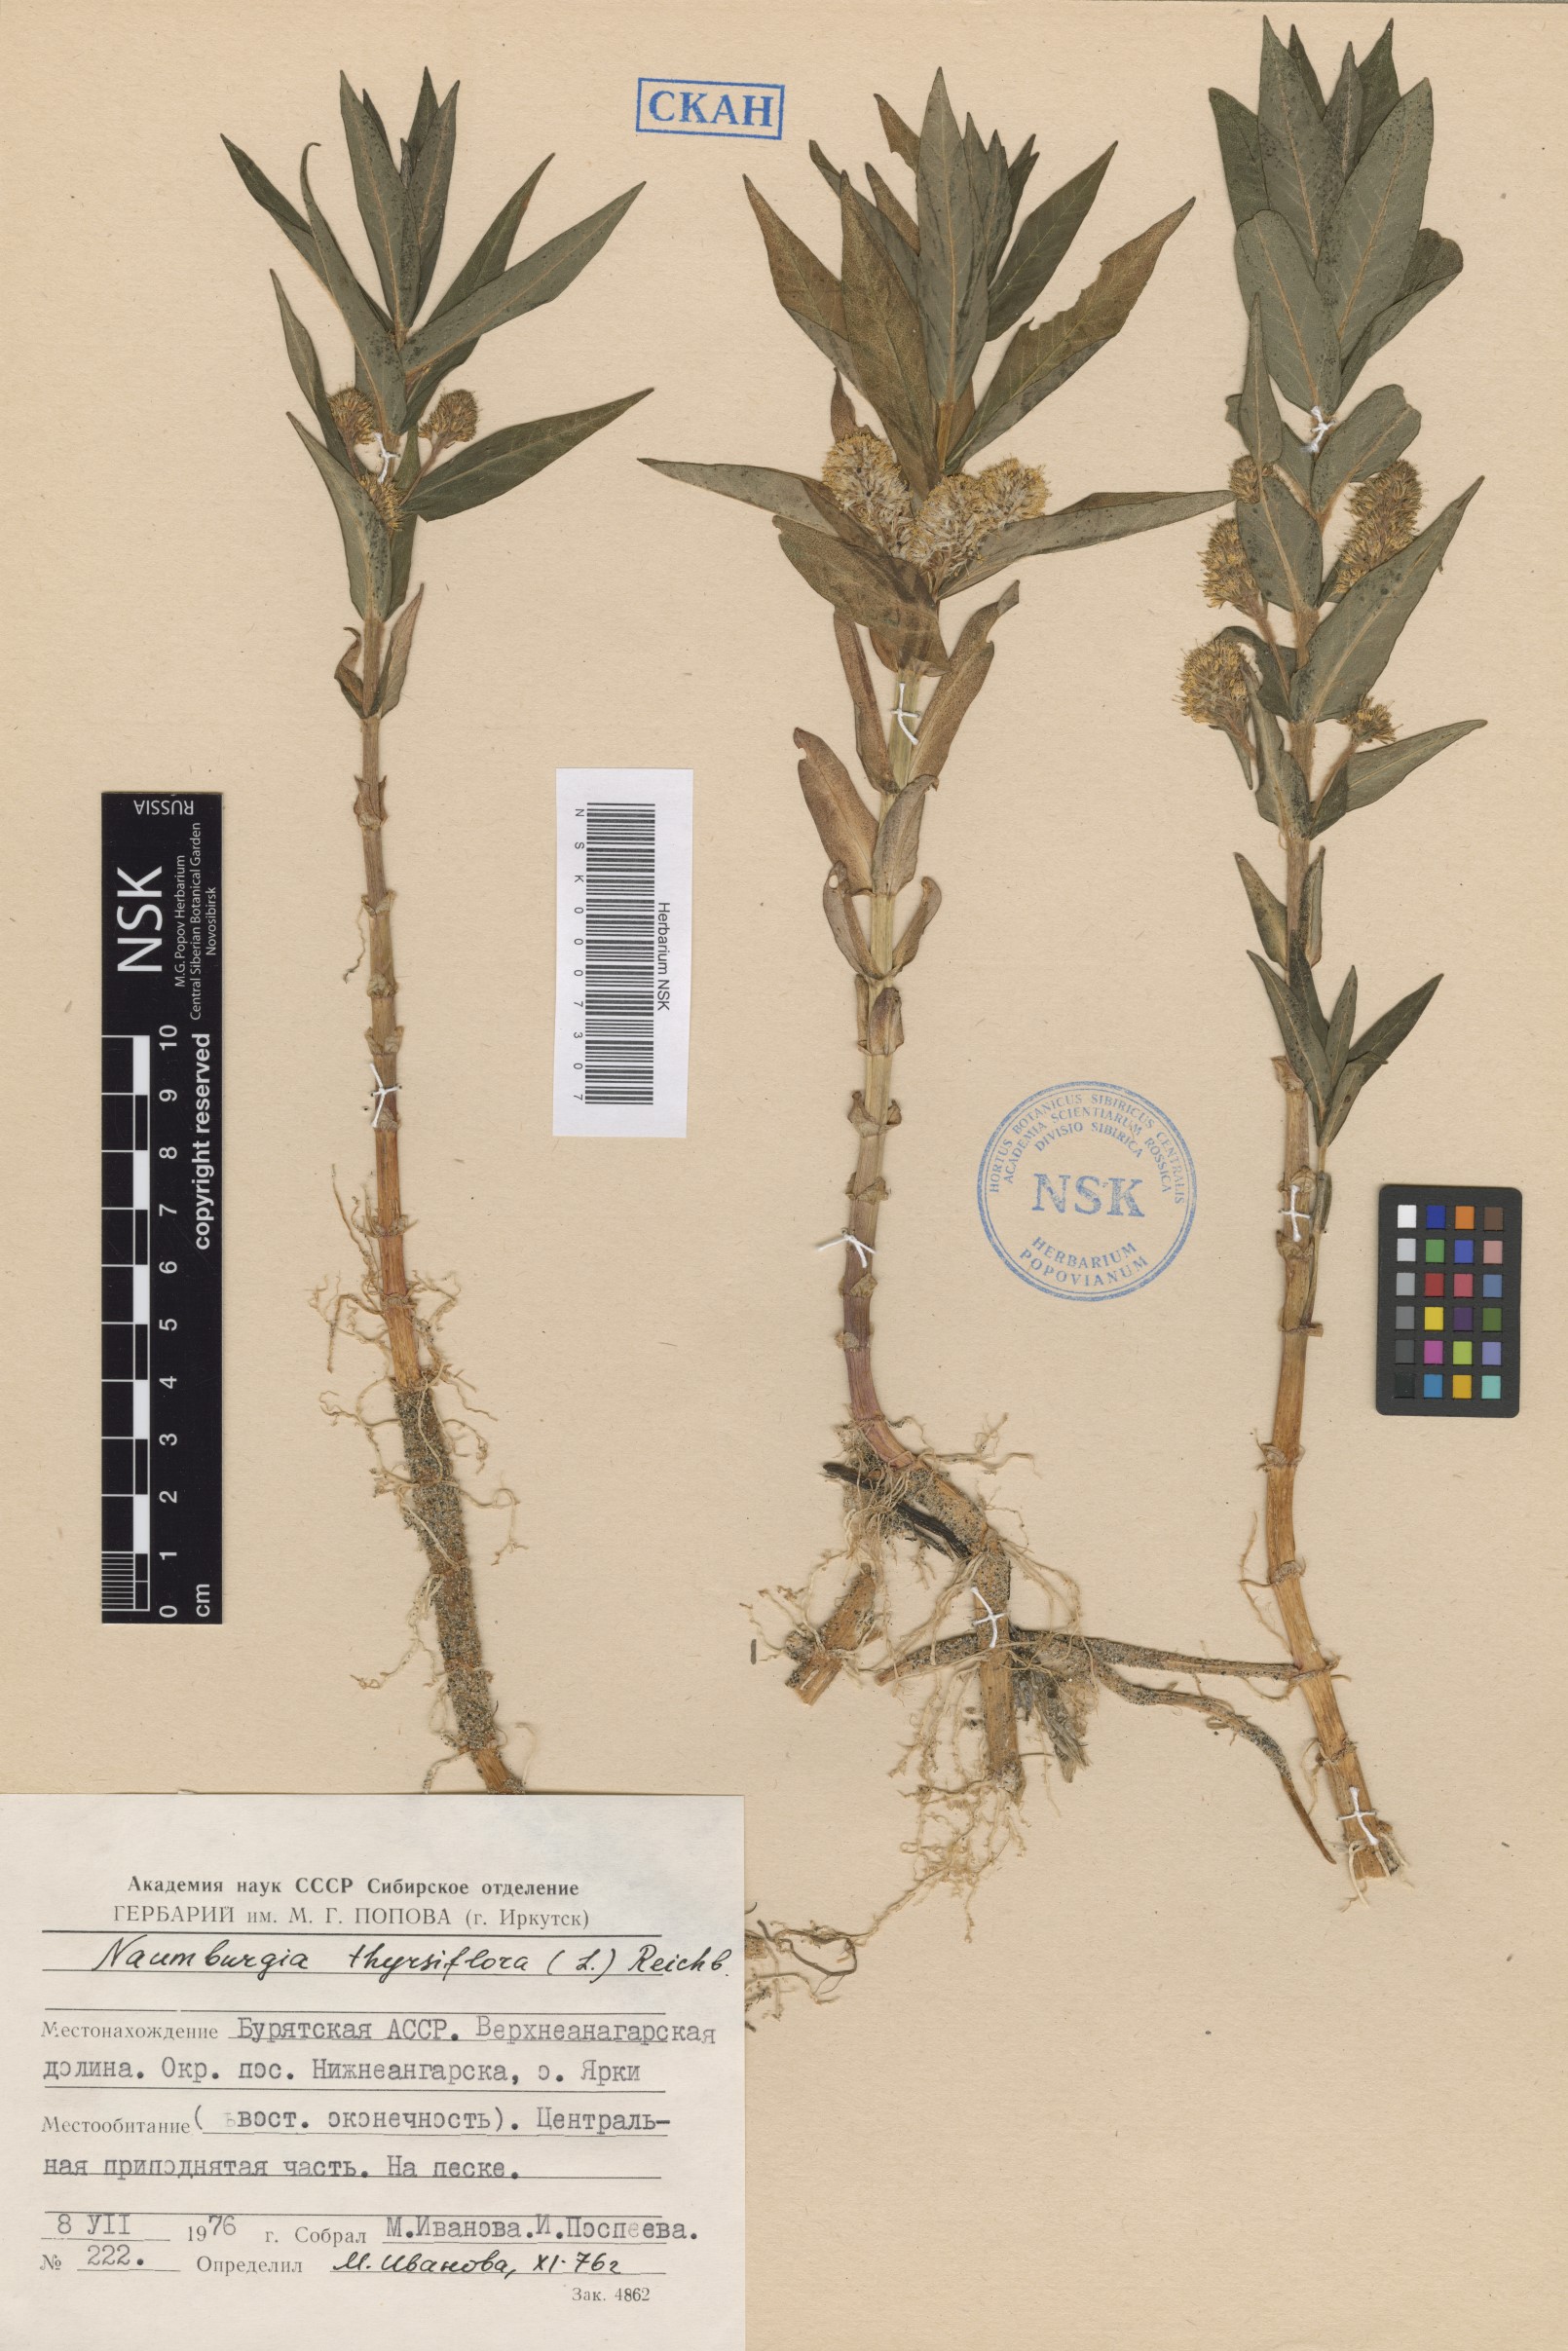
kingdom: Plantae
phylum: Tracheophyta
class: Magnoliopsida
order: Ericales
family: Primulaceae
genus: Lysimachia
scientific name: Lysimachia thyrsiflora
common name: Tufted loosestrife
